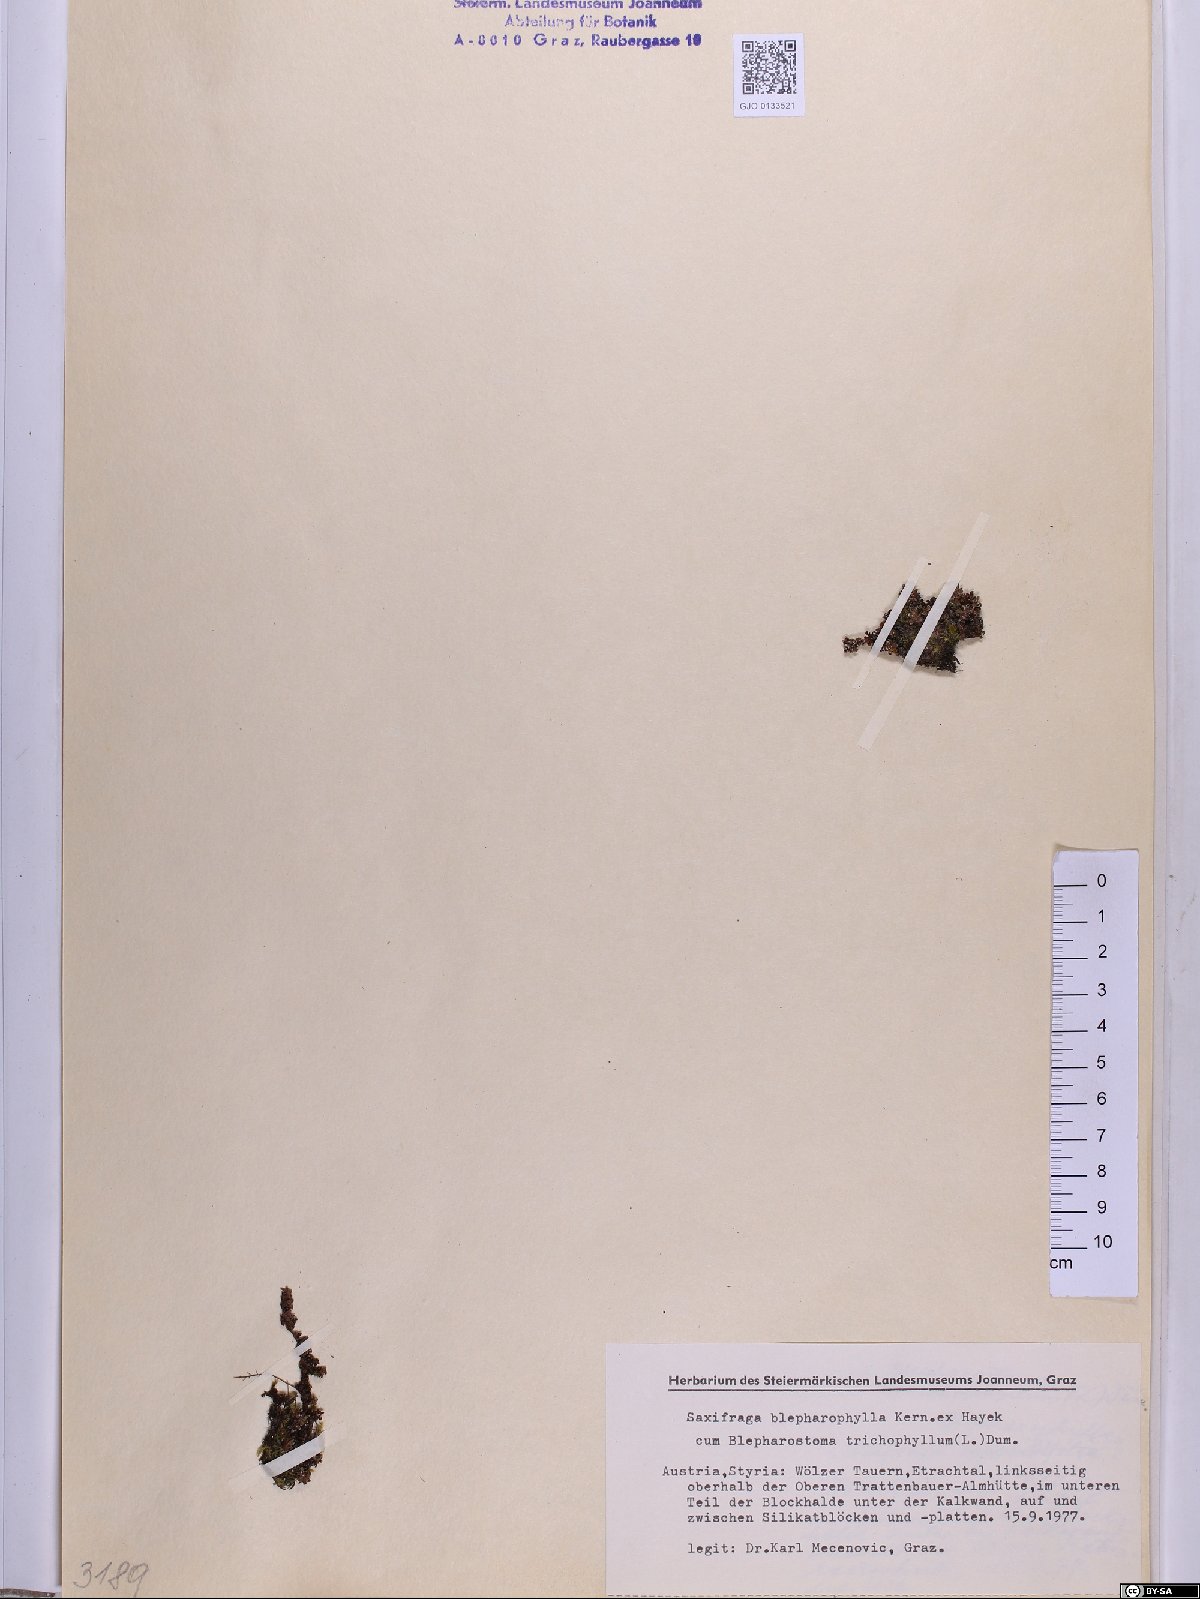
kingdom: Plantae
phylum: Tracheophyta
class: Magnoliopsida
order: Saxifragales
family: Saxifragaceae
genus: Saxifraga
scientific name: Saxifraga oppositifolia
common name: Purple saxifrage
